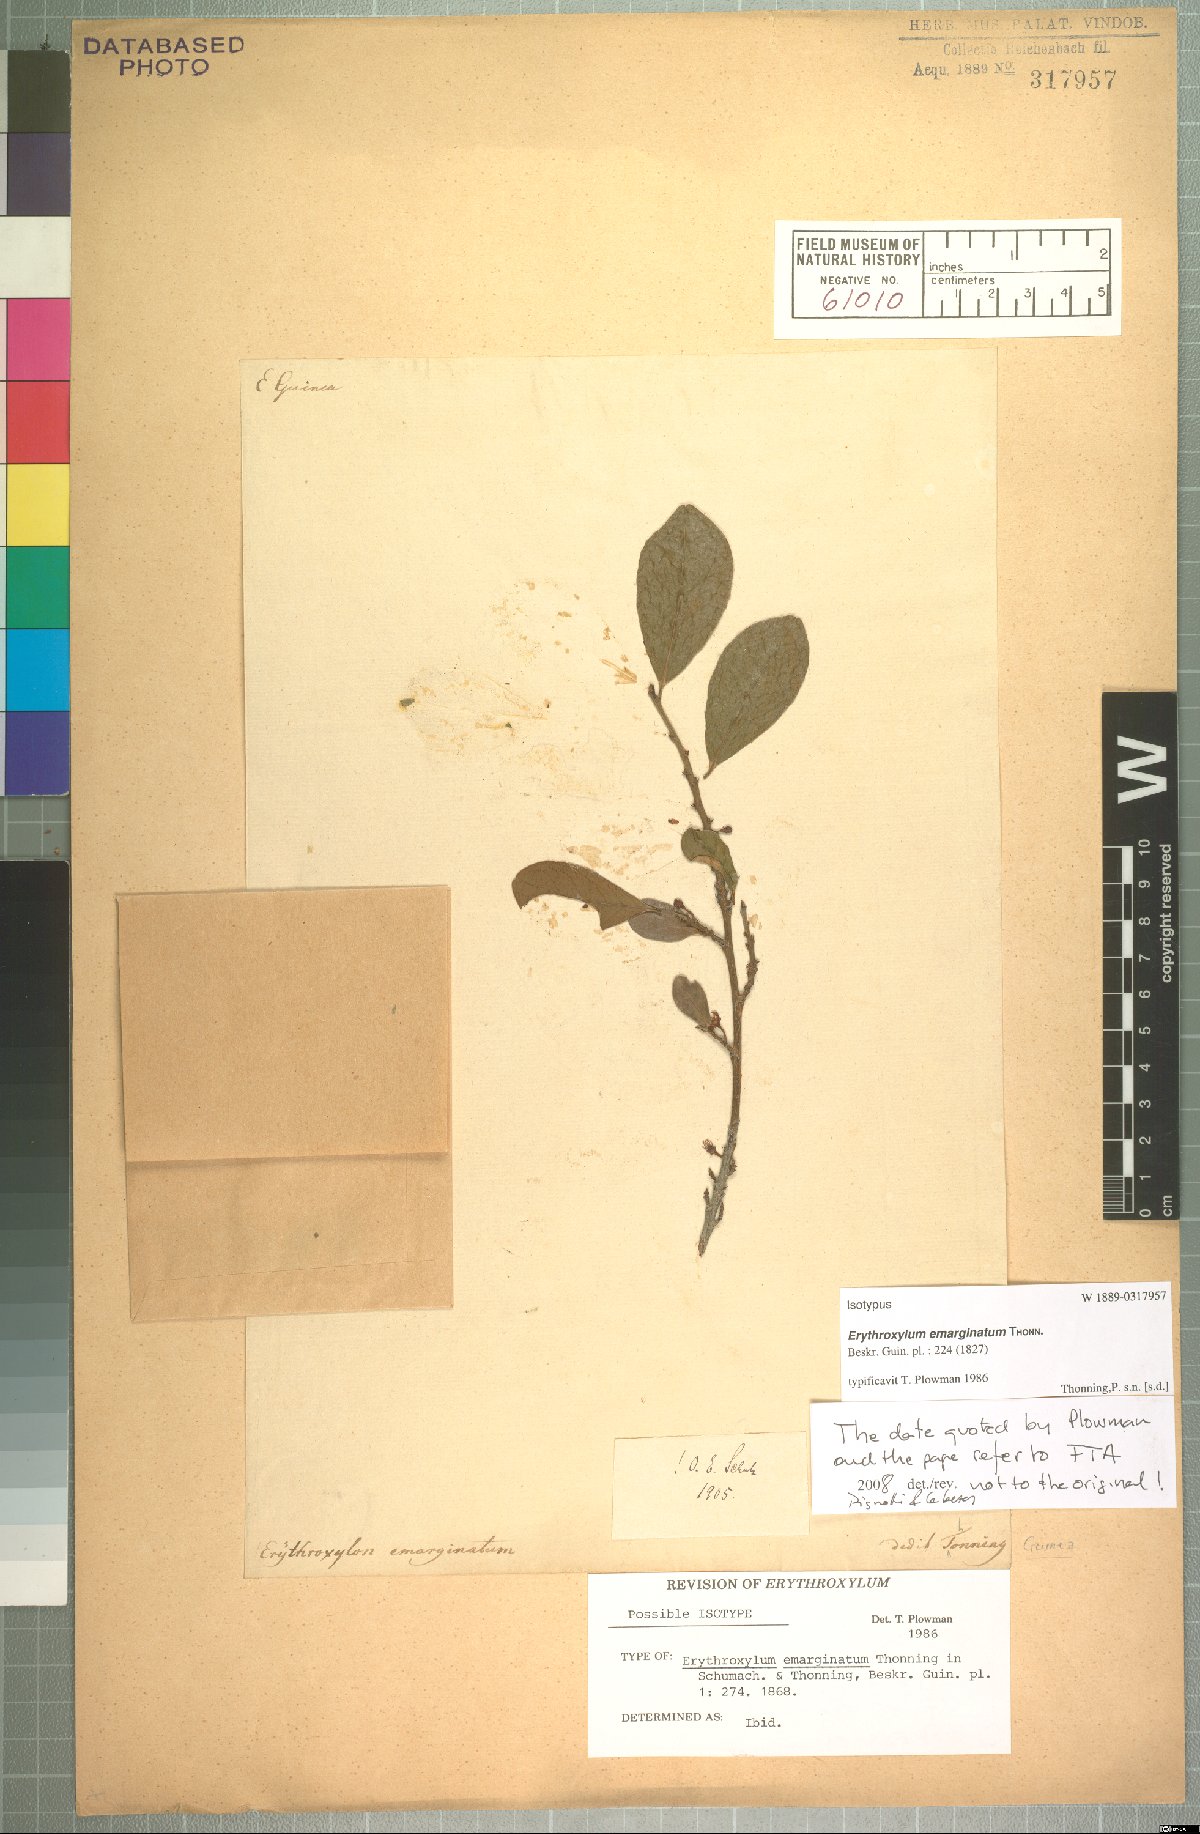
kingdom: Plantae
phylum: Tracheophyta
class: Magnoliopsida
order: Malpighiales
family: Erythroxylaceae
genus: Erythroxylum
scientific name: Erythroxylum emarginatum
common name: African coca-tree
